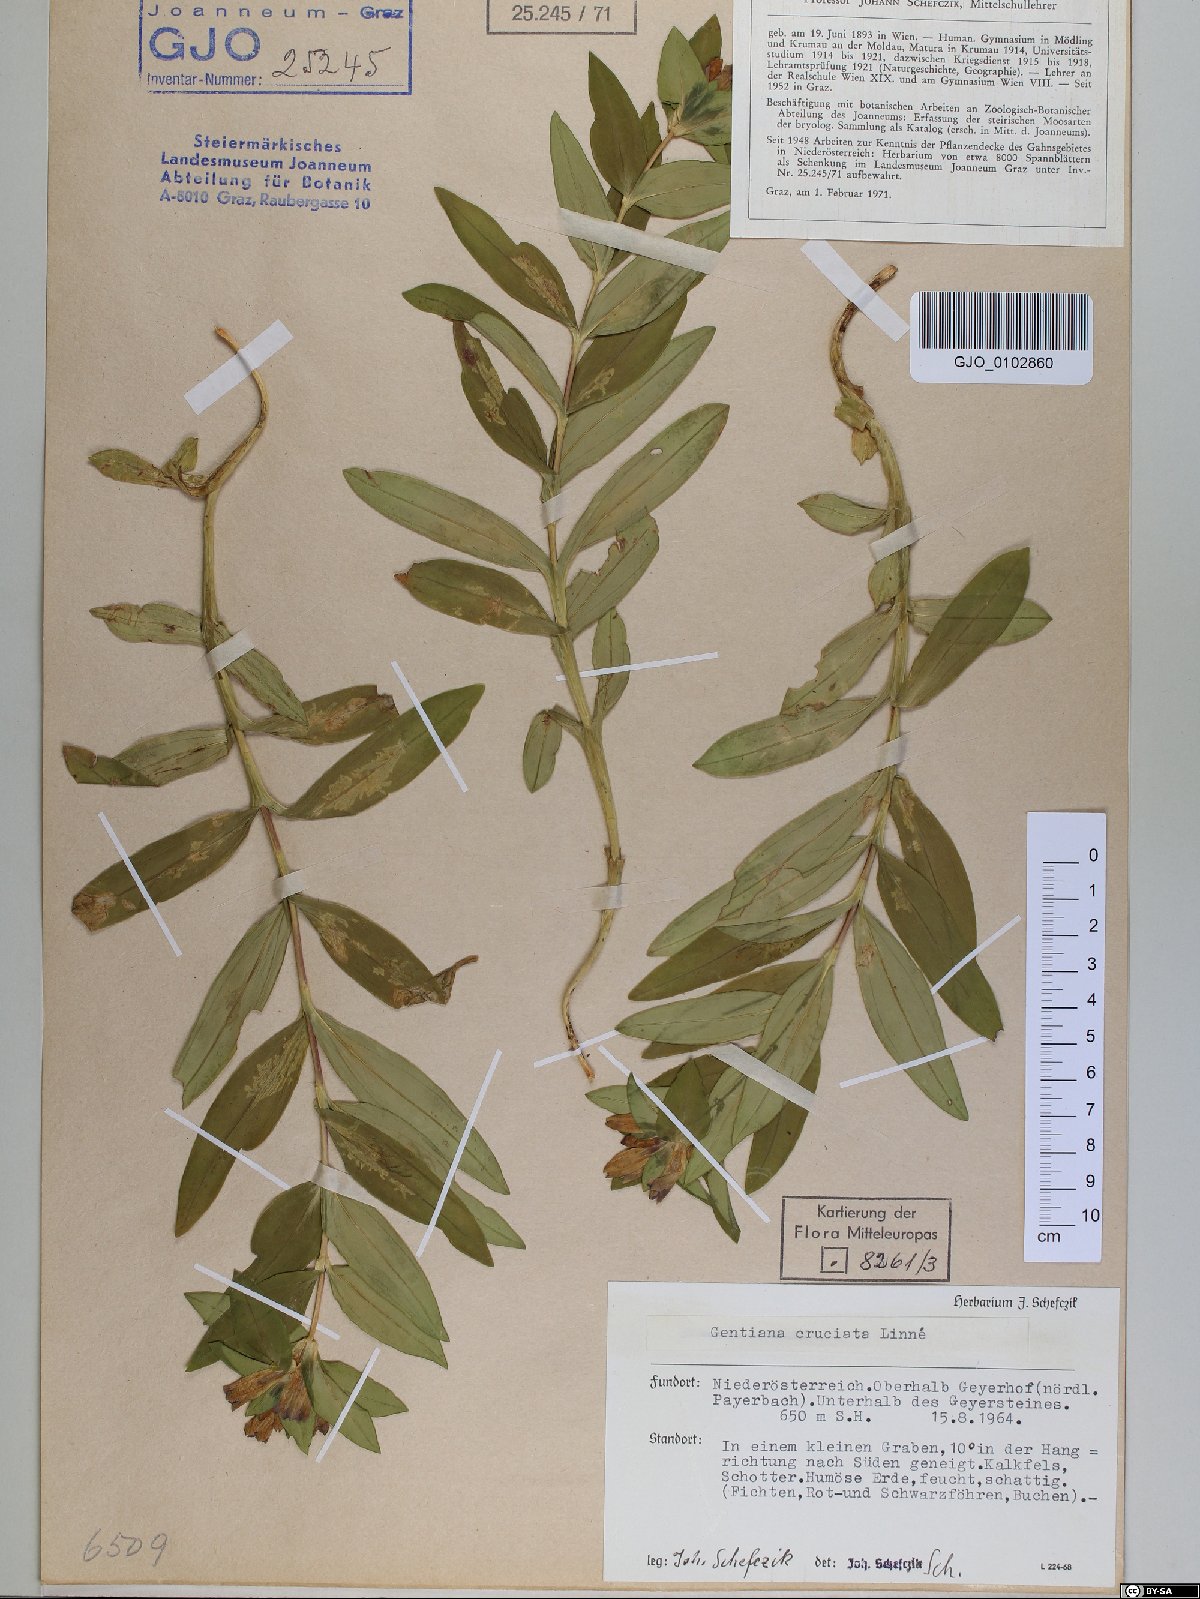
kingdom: Plantae
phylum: Tracheophyta
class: Magnoliopsida
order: Gentianales
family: Gentianaceae
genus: Gentiana
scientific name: Gentiana cruciata
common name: Cross gentian
